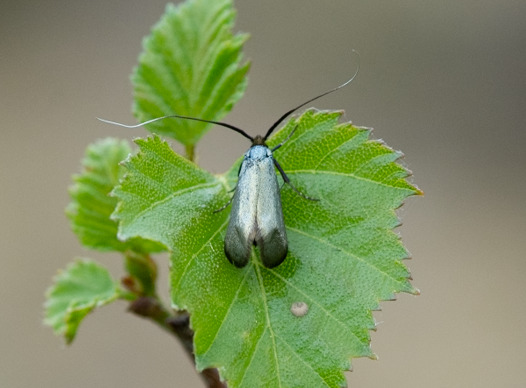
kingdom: Animalia
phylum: Arthropoda
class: Insecta
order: Lepidoptera
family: Adelidae
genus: Adela
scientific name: Adela viridella
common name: Egelanghornsmøl
